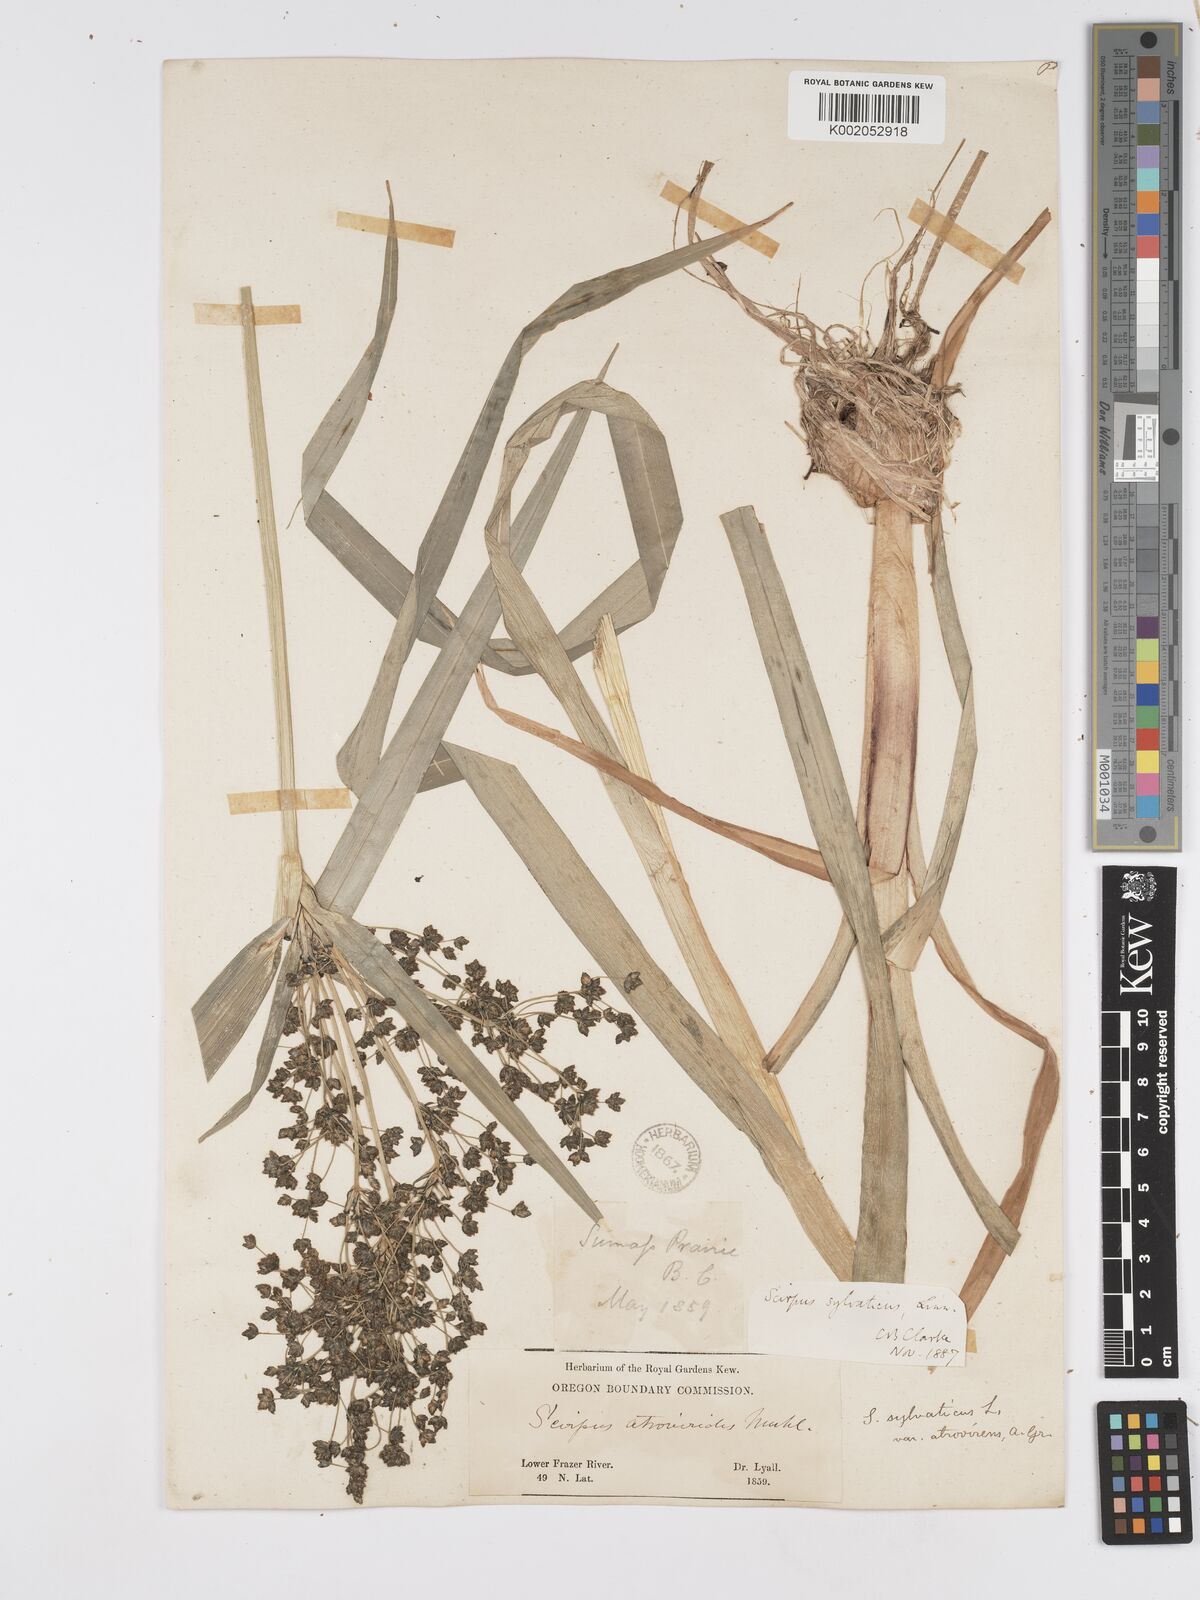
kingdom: Plantae
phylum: Tracheophyta
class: Liliopsida
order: Poales
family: Cyperaceae
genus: Scirpus
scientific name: Scirpus sylvaticus
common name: Wood club-rush
